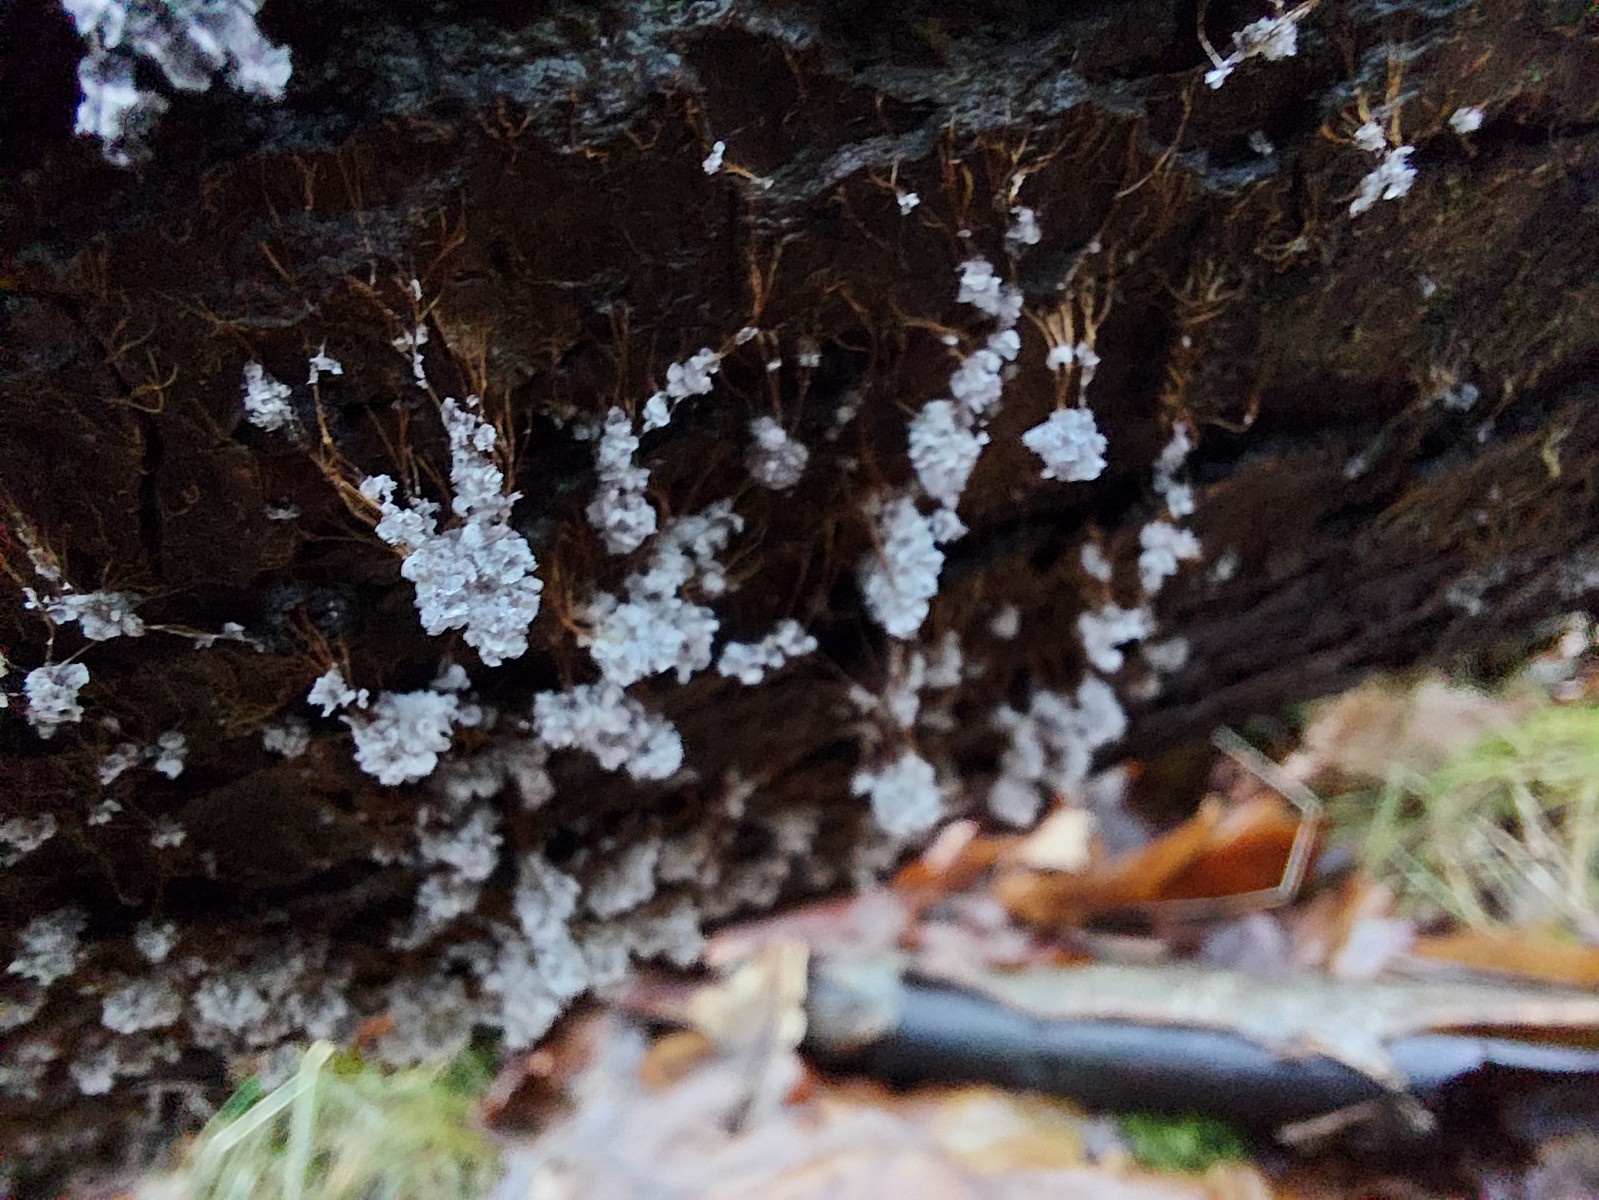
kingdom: Protozoa
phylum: Mycetozoa
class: Myxomycetes
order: Physarales
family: Physaraceae
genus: Badhamia
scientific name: Badhamia utricularis
